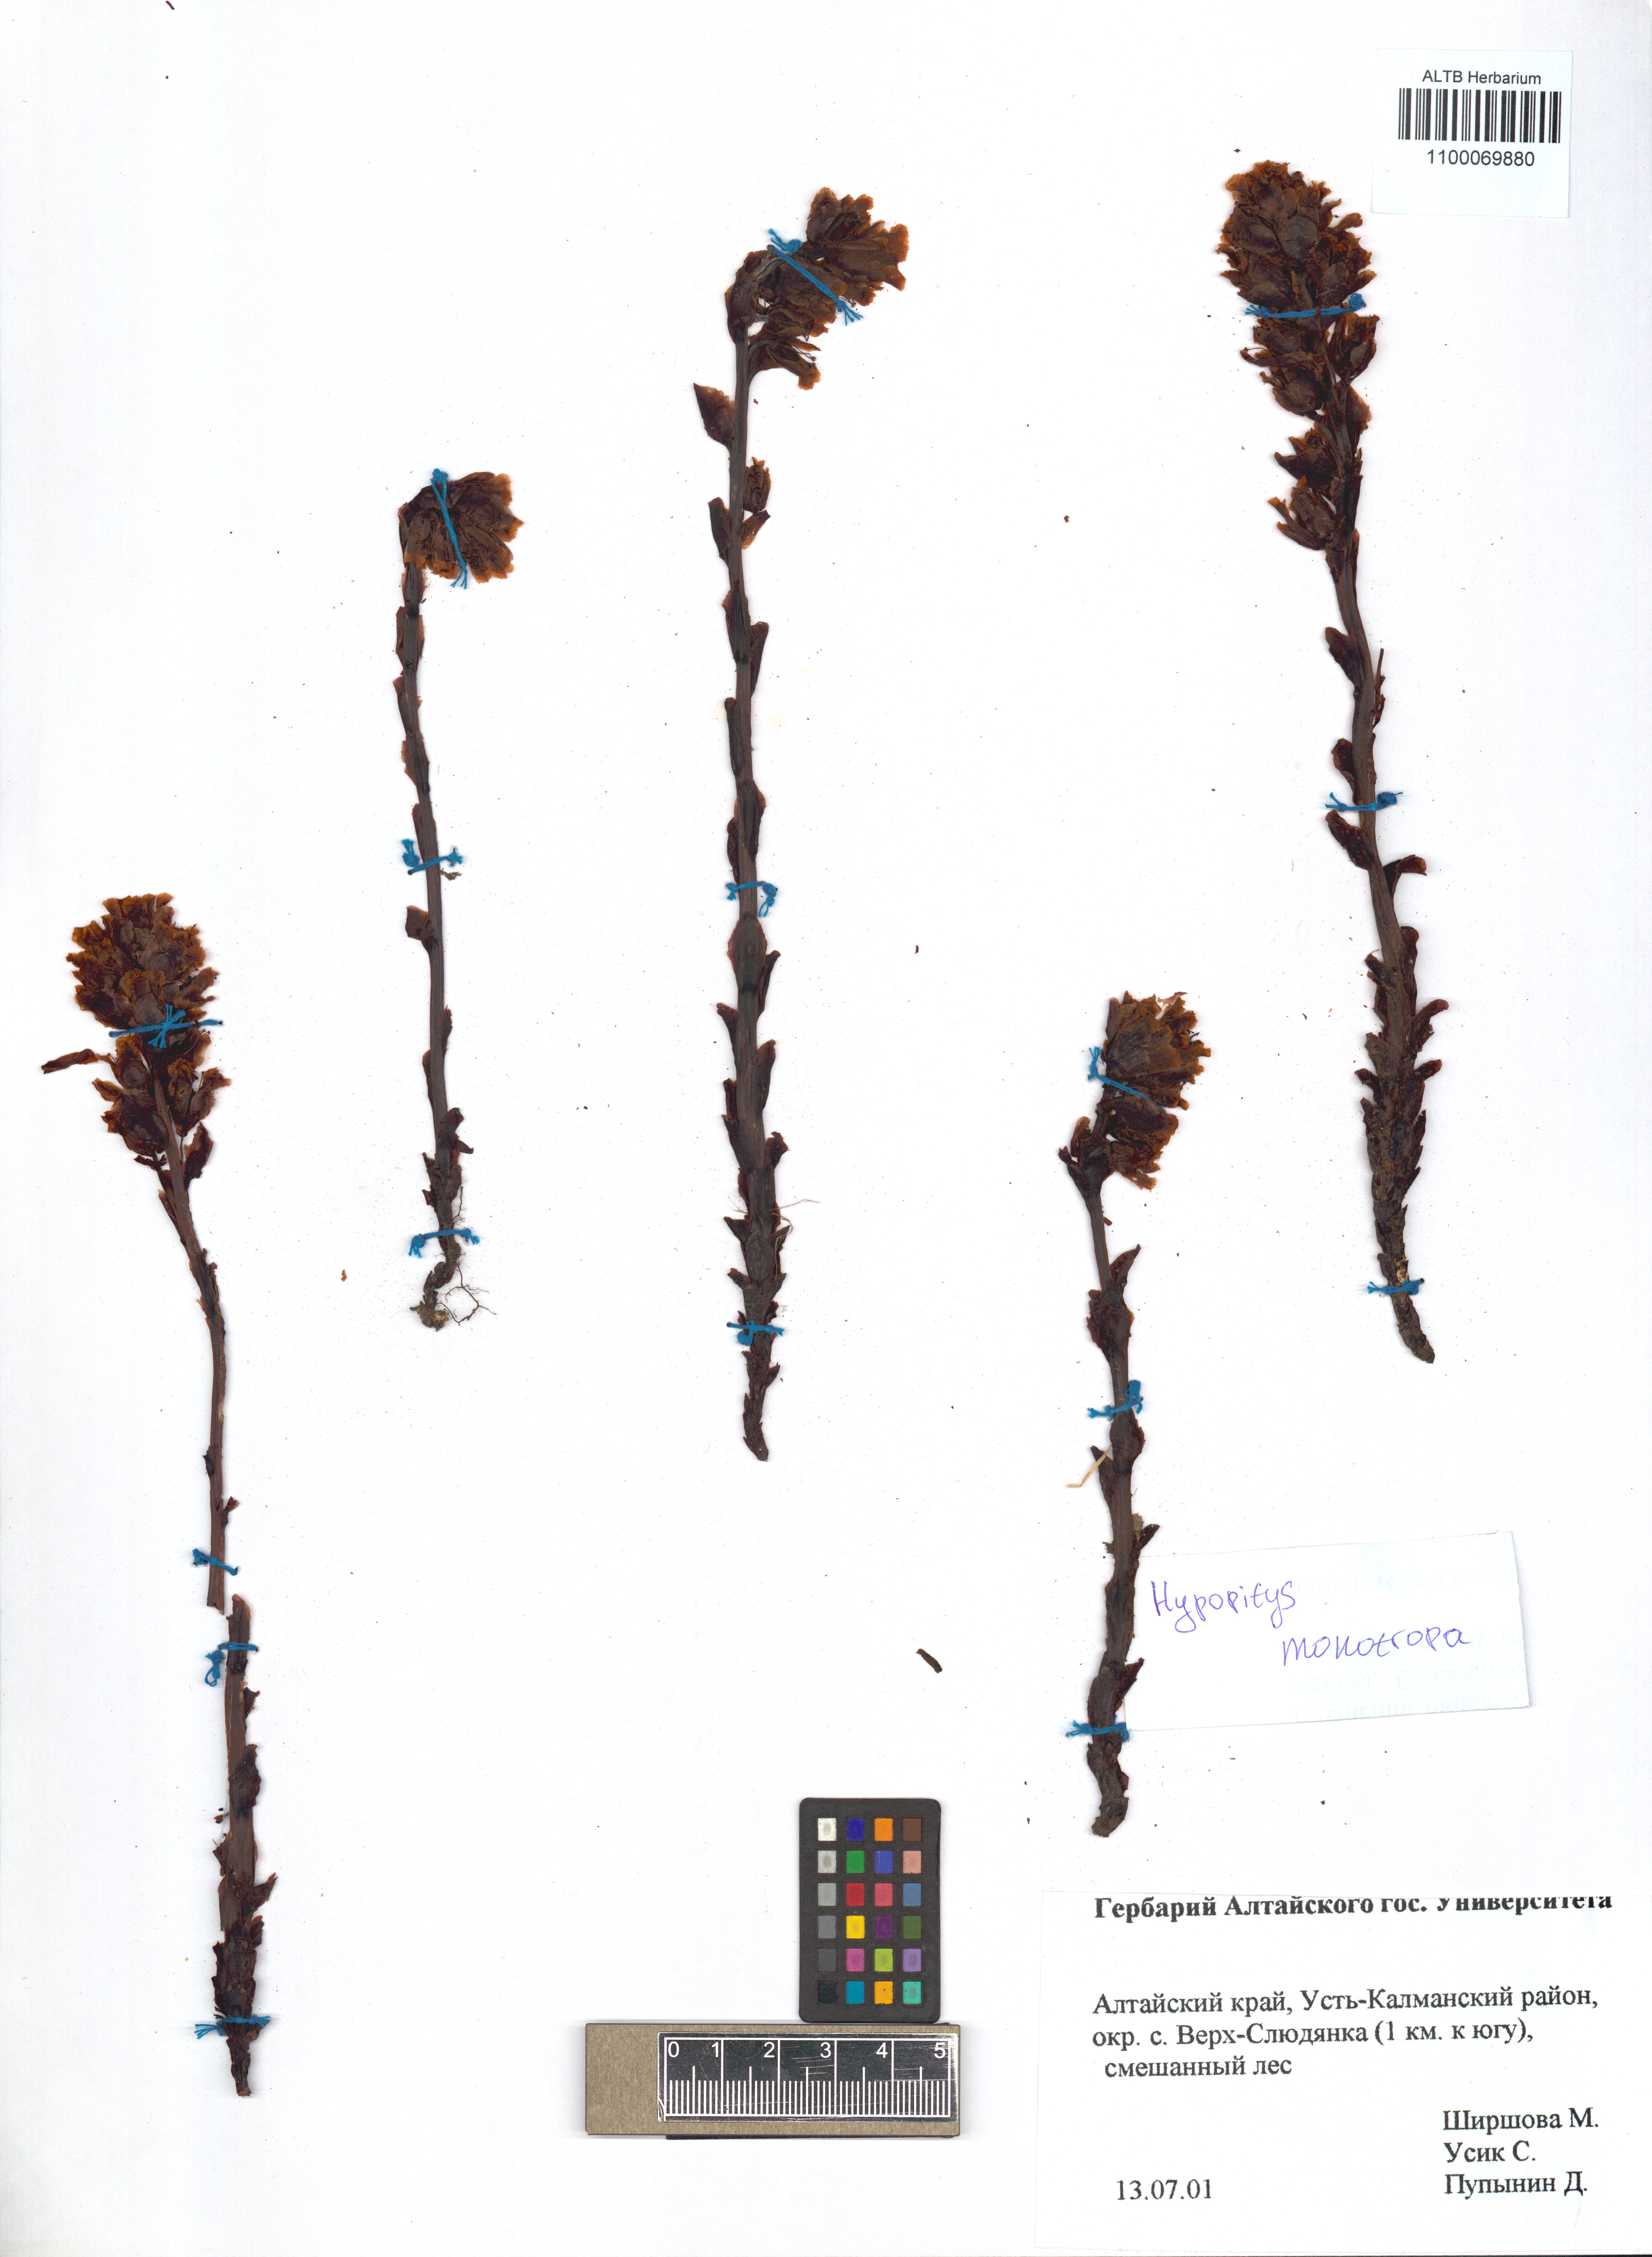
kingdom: Plantae
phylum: Tracheophyta
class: Magnoliopsida
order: Ericales
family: Ericaceae
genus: Hypopitys
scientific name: Hypopitys monotropa
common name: Yellow bird's-nest
